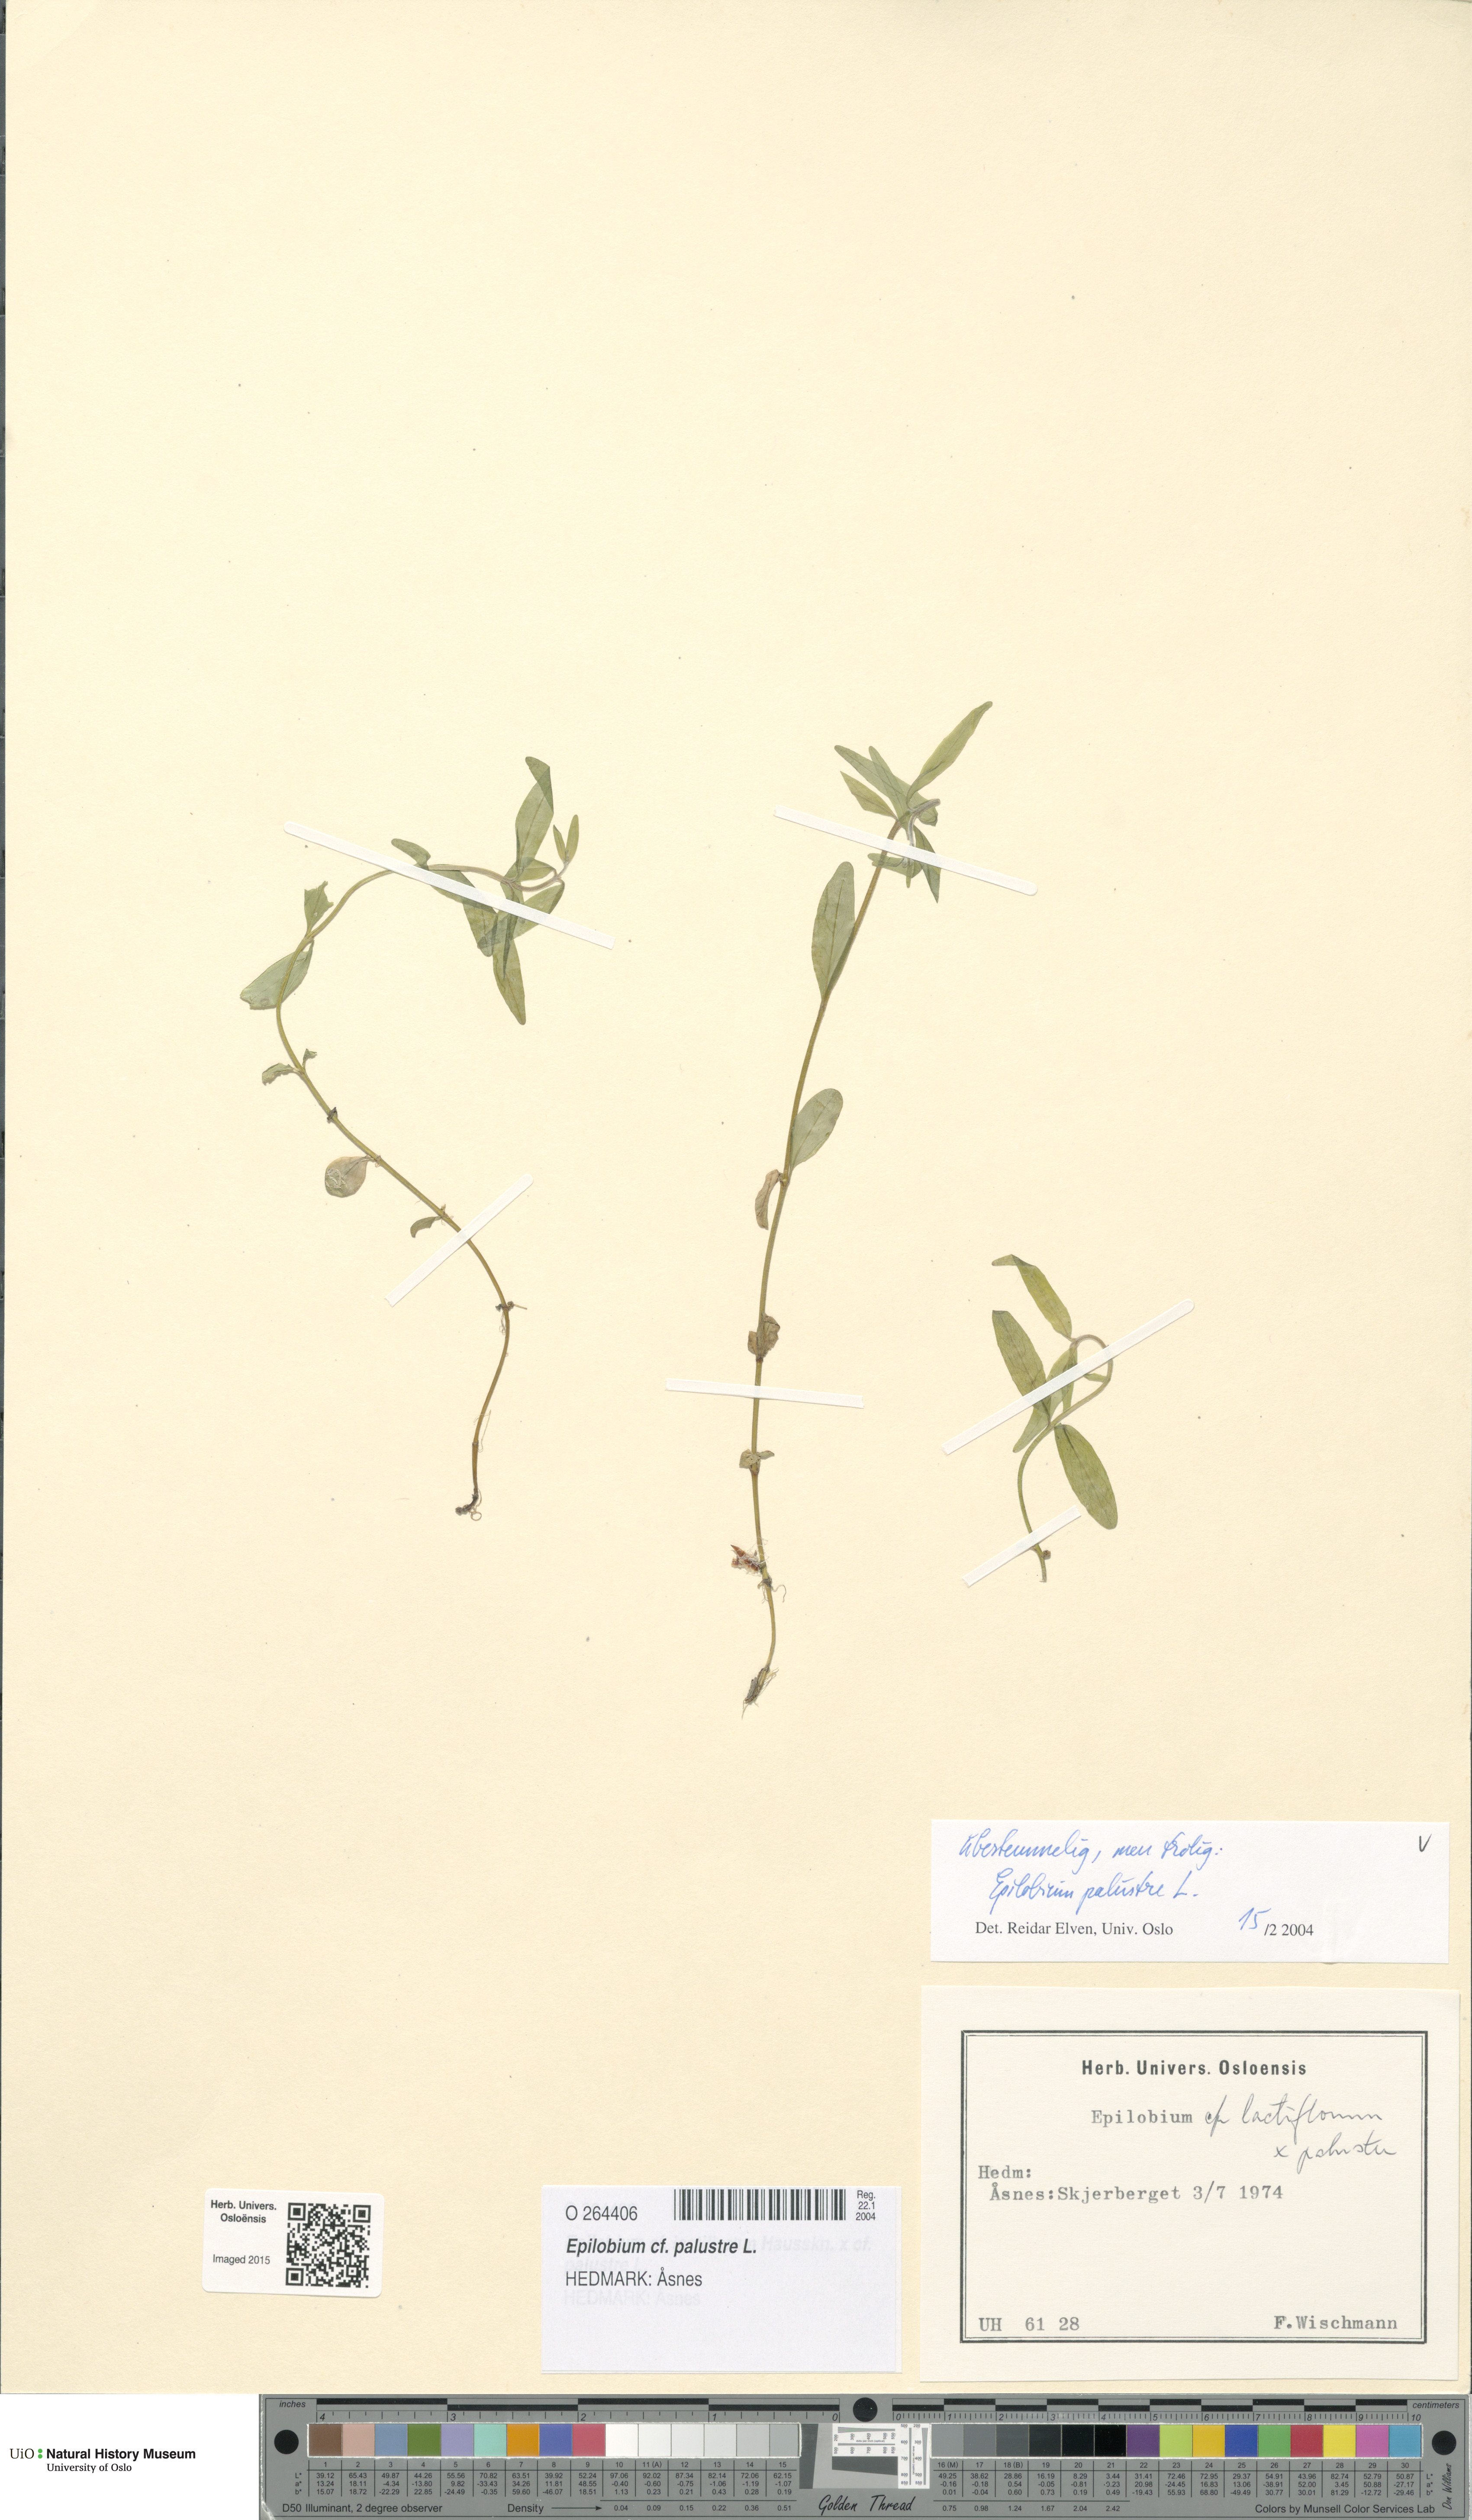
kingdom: Plantae
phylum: Tracheophyta
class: Magnoliopsida
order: Myrtales
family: Onagraceae
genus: Epilobium
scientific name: Epilobium palustre
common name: Marsh willowherb
